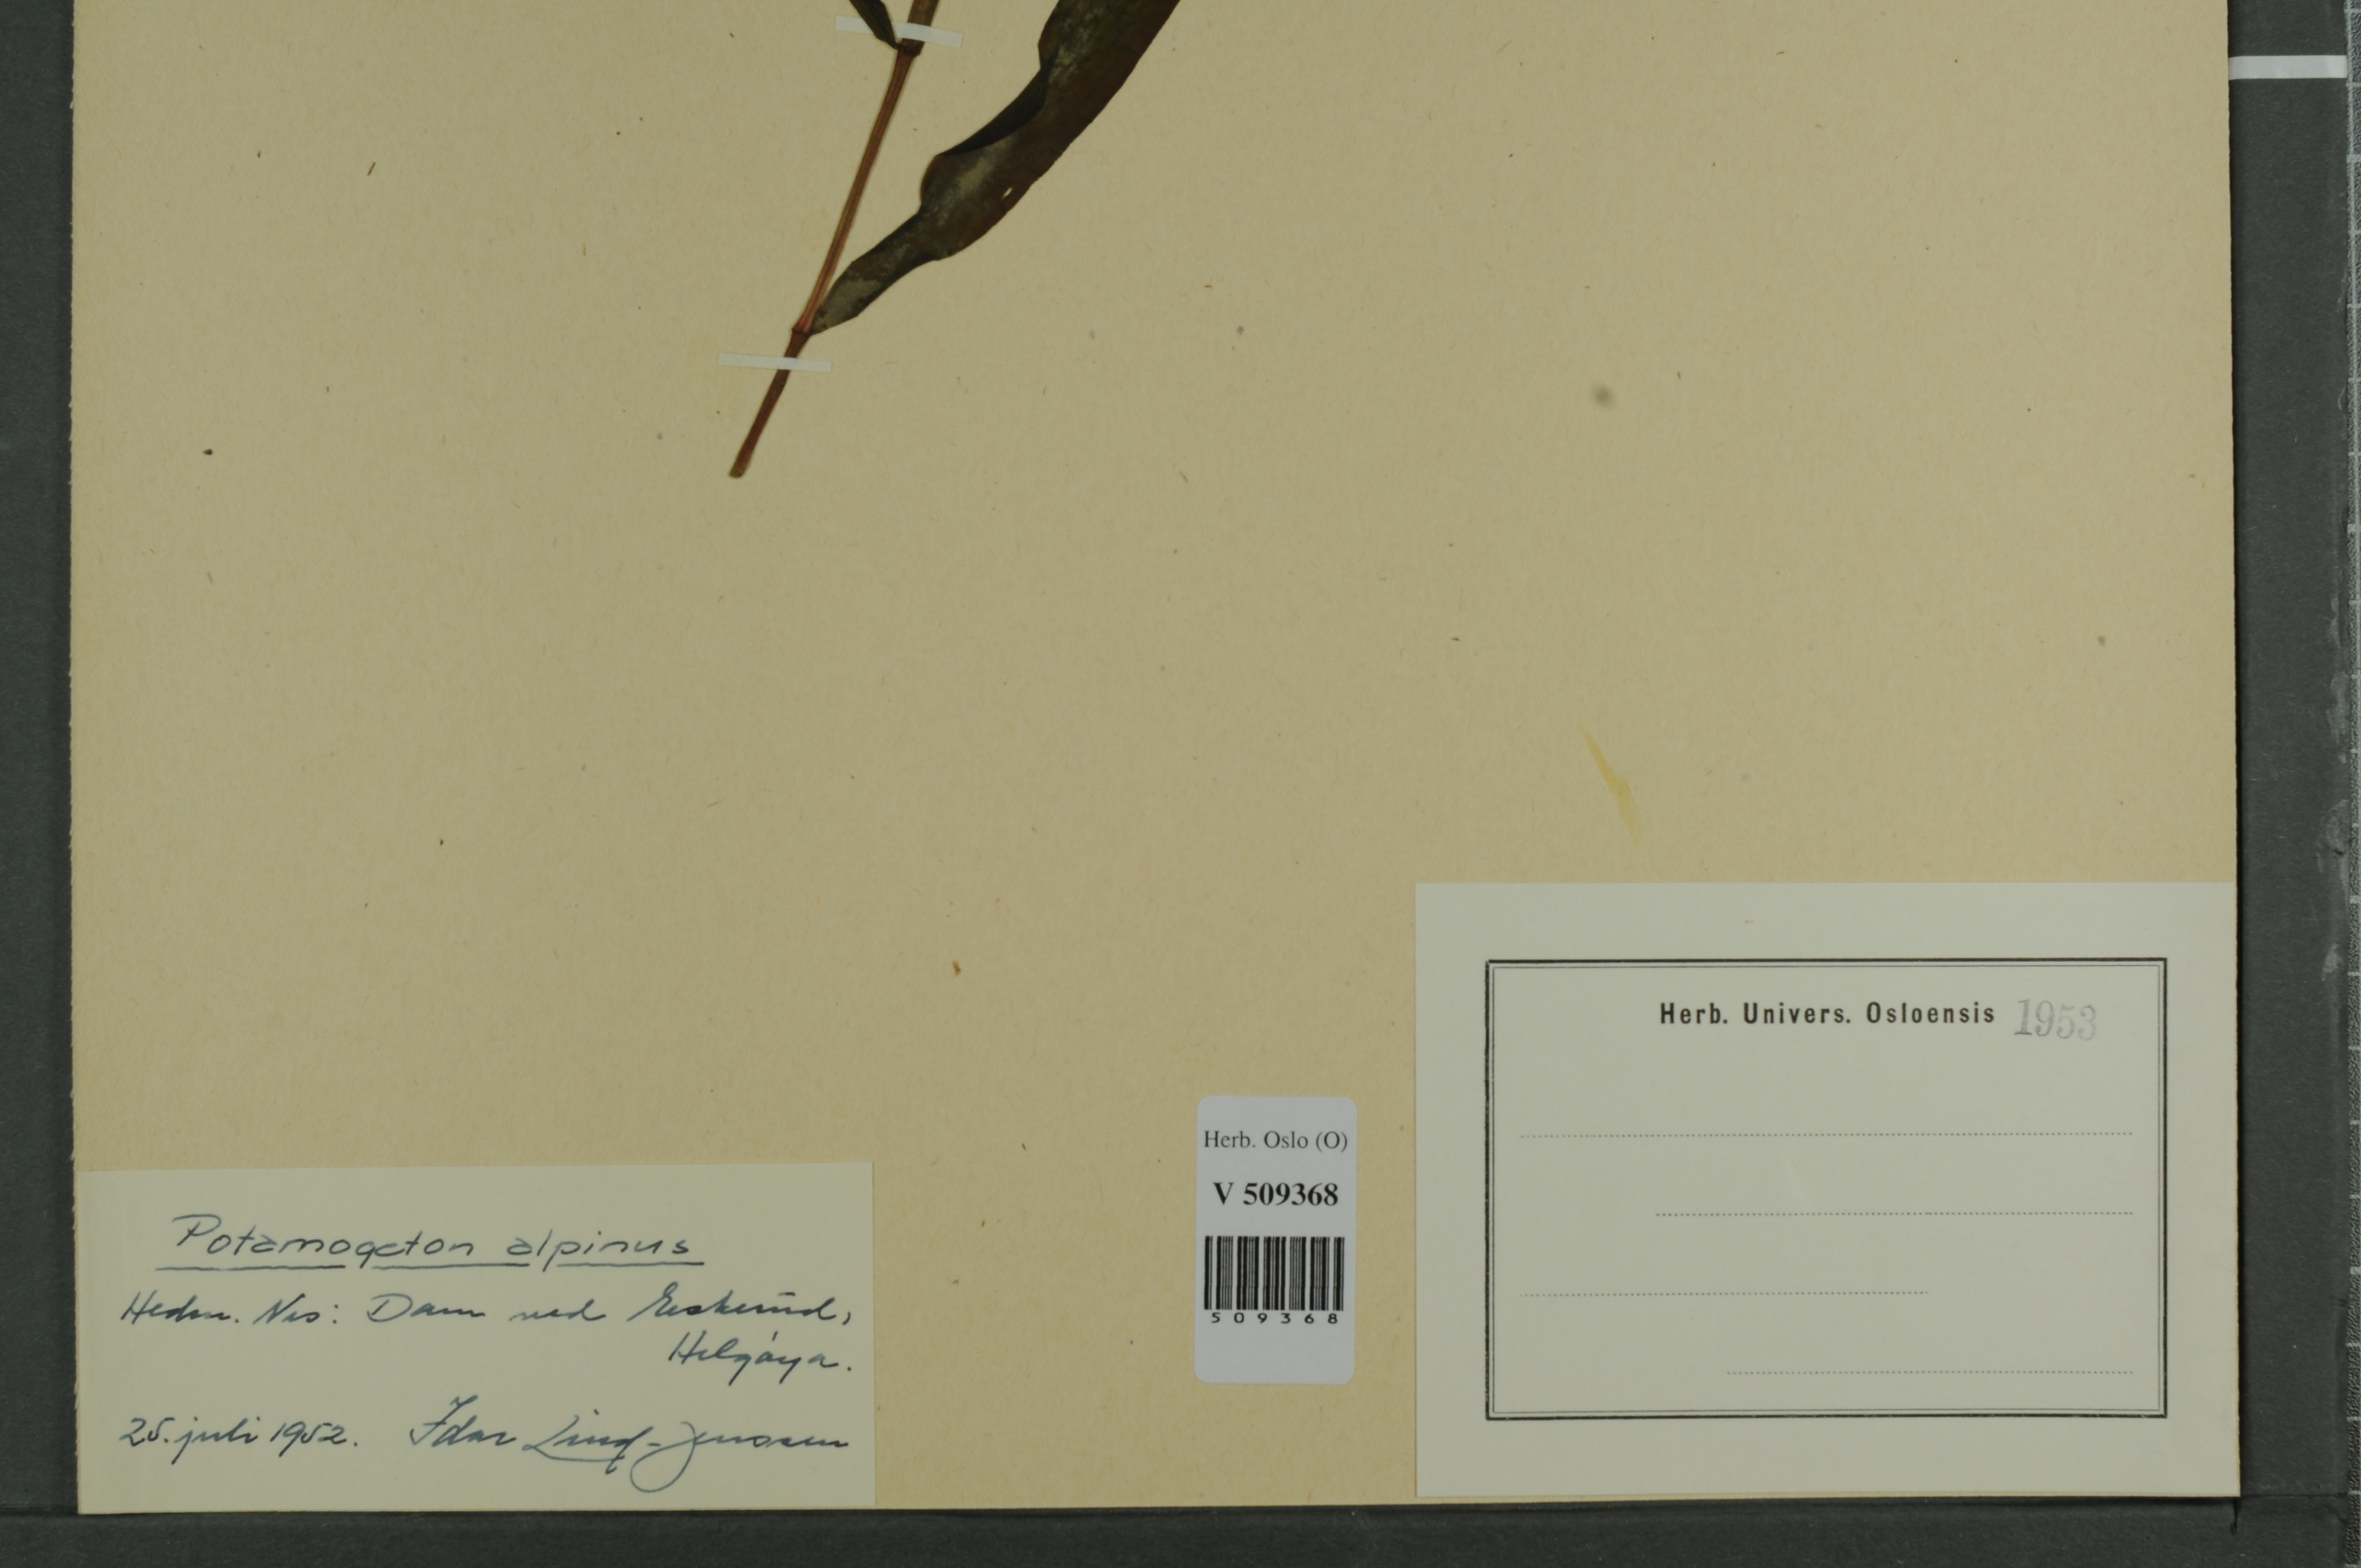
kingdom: Plantae
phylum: Tracheophyta
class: Liliopsida
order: Alismatales
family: Potamogetonaceae
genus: Potamogeton
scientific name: Potamogeton alpinus
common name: Red pondweed
